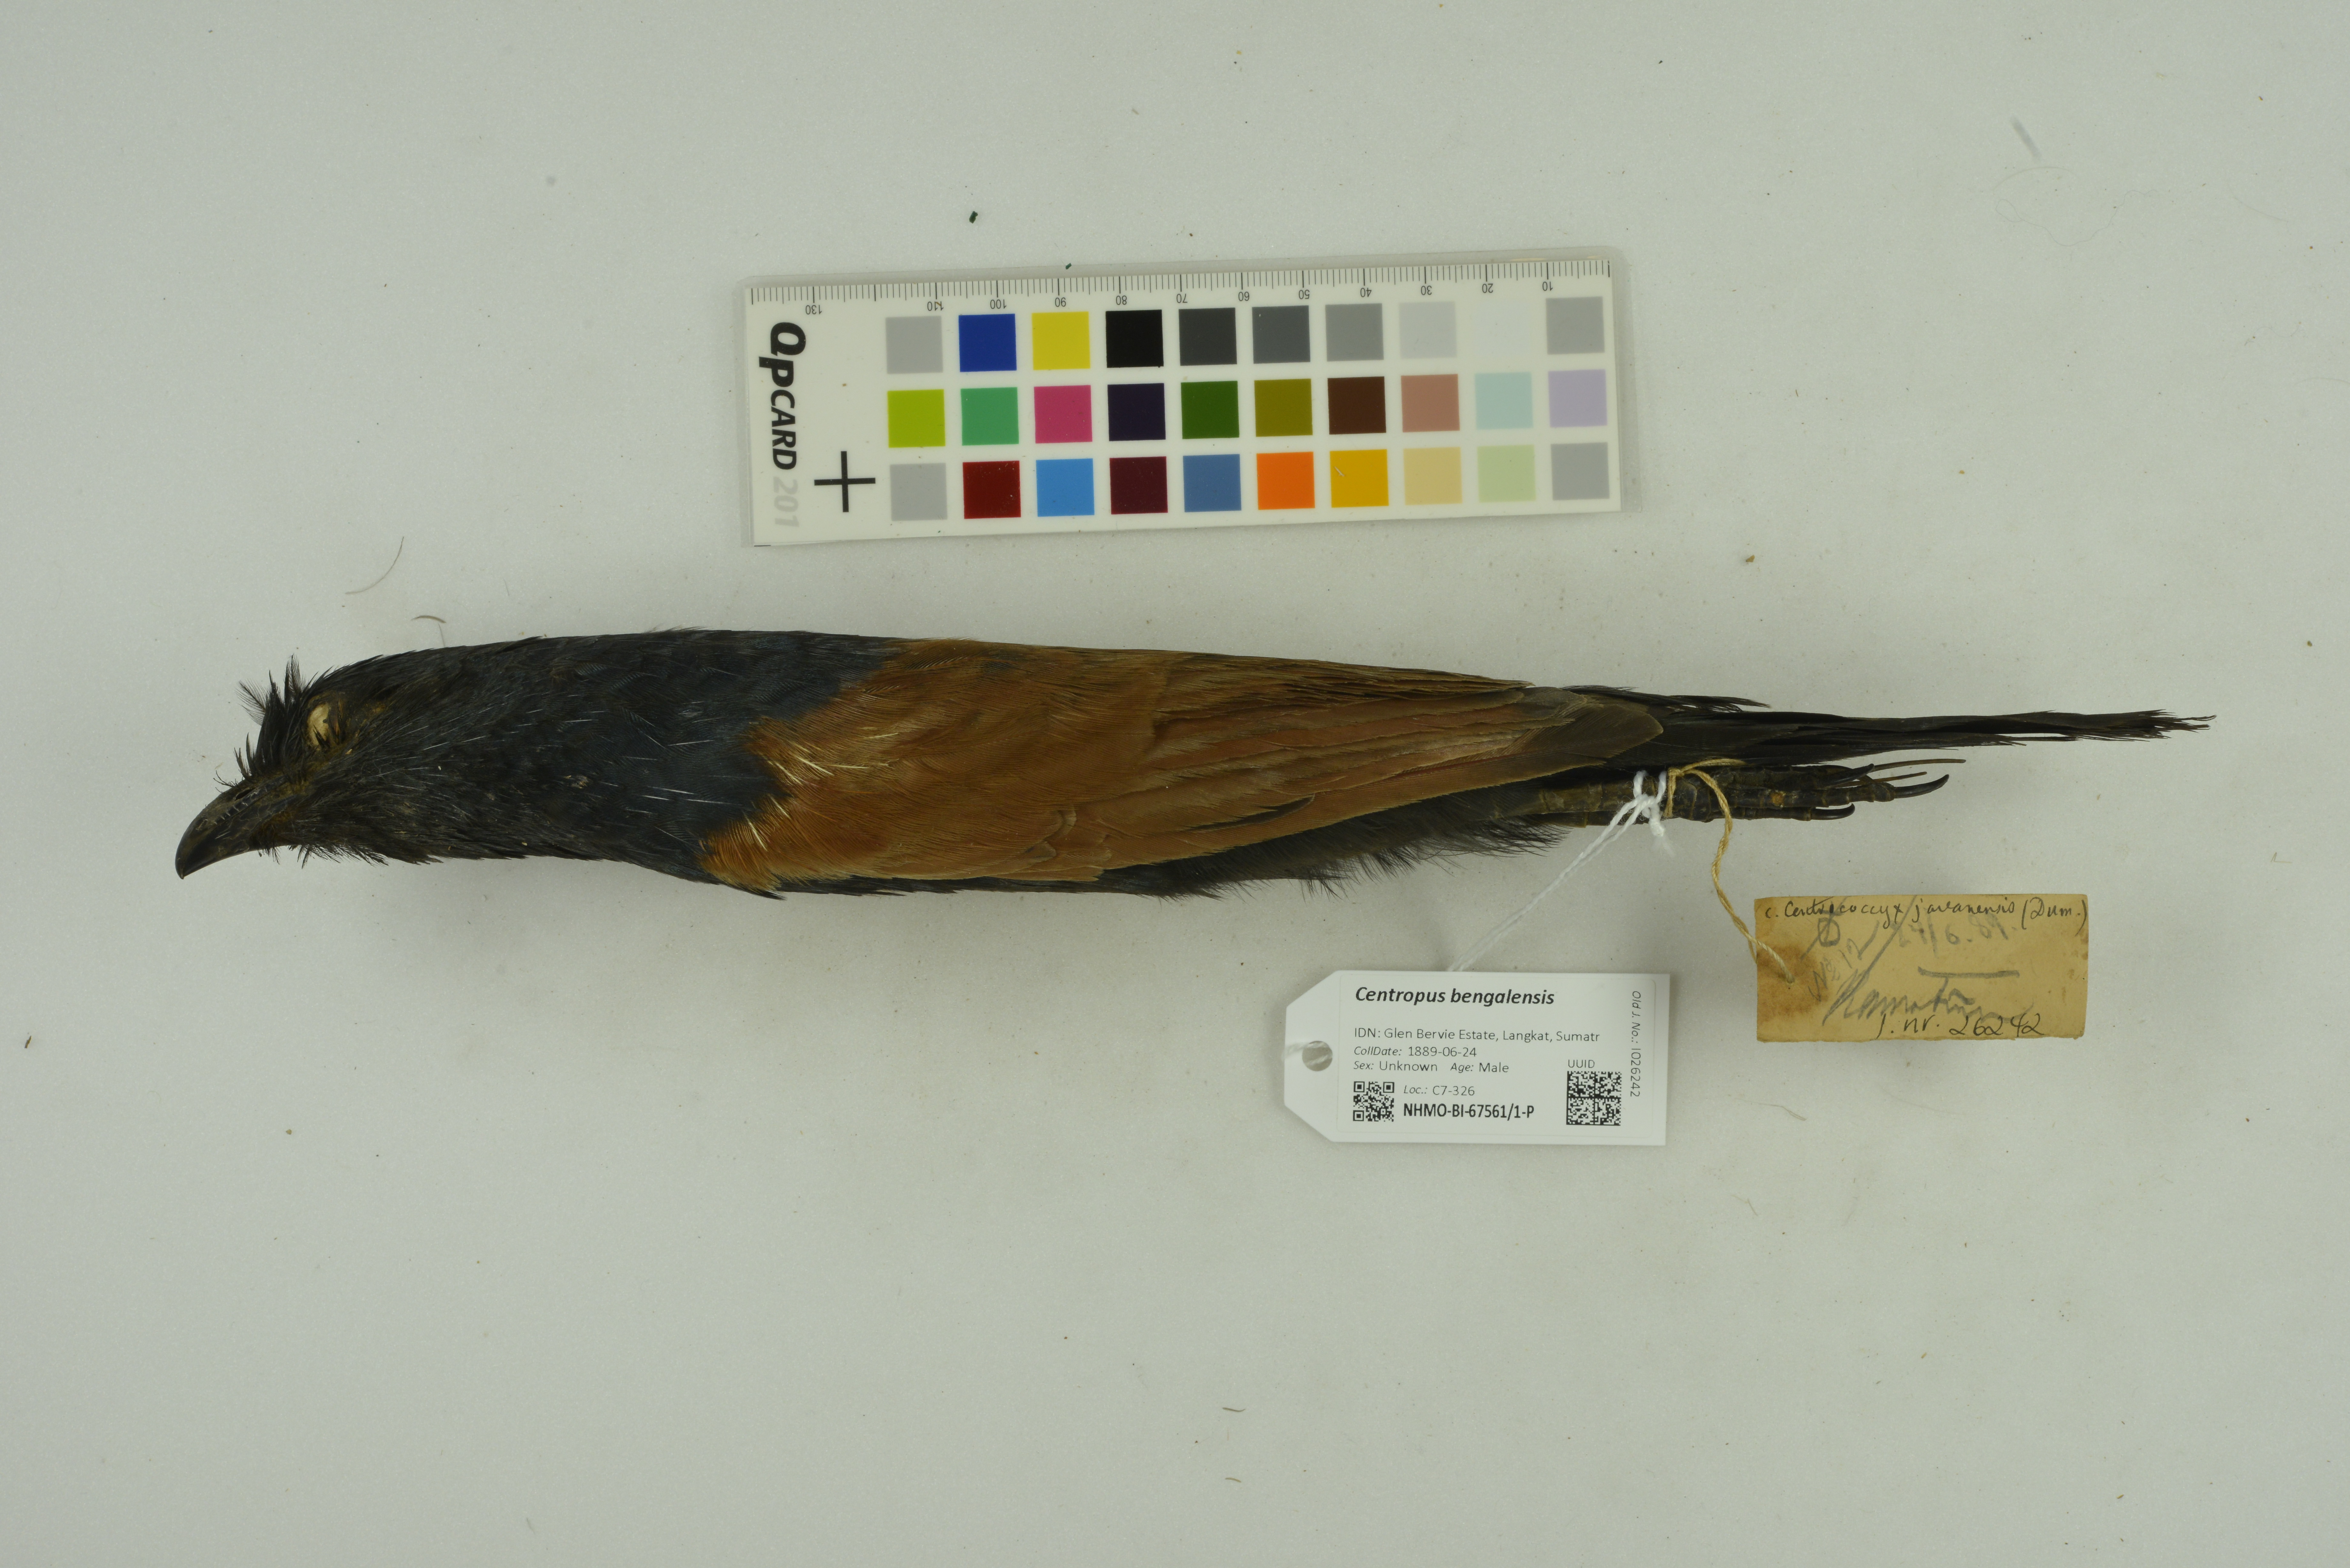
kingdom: Animalia
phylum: Chordata
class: Aves
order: Cuculiformes
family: Cuculidae
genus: Centropus
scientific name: Centropus bengalensis
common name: Lesser coucal
